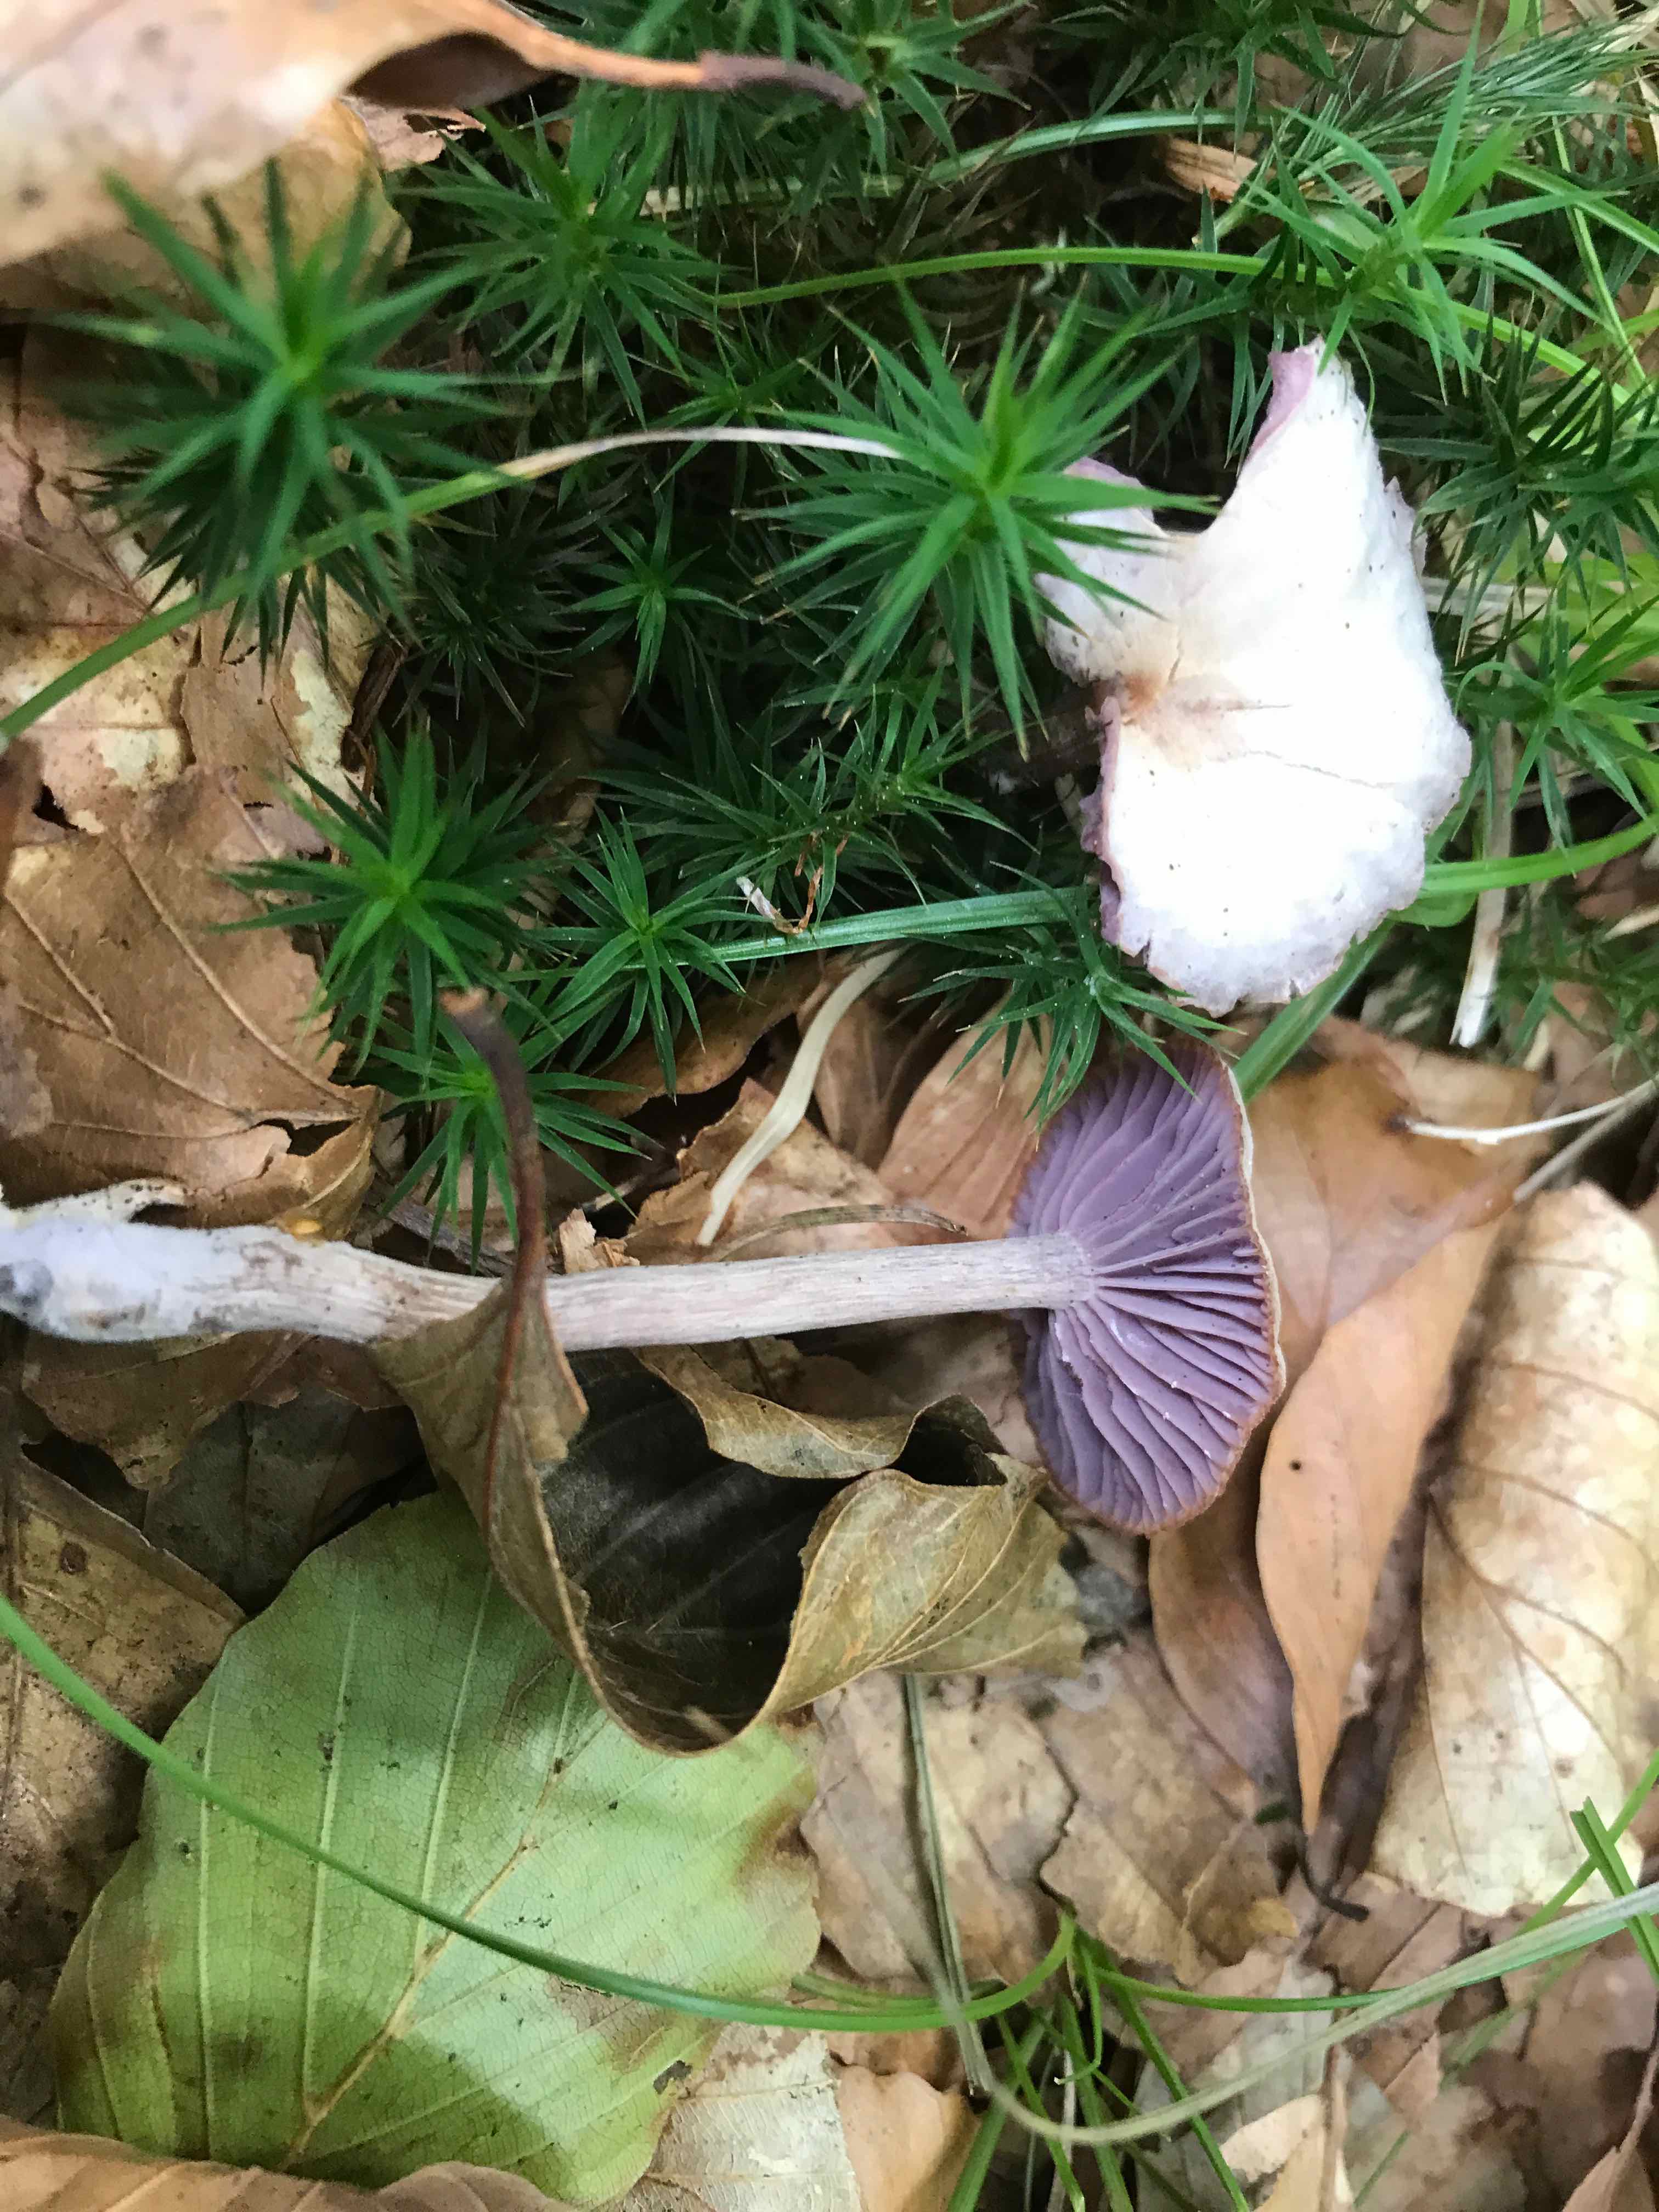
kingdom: Fungi
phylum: Basidiomycota
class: Agaricomycetes
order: Agaricales
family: Hydnangiaceae
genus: Laccaria
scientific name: Laccaria amethystina
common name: violet ametysthat
